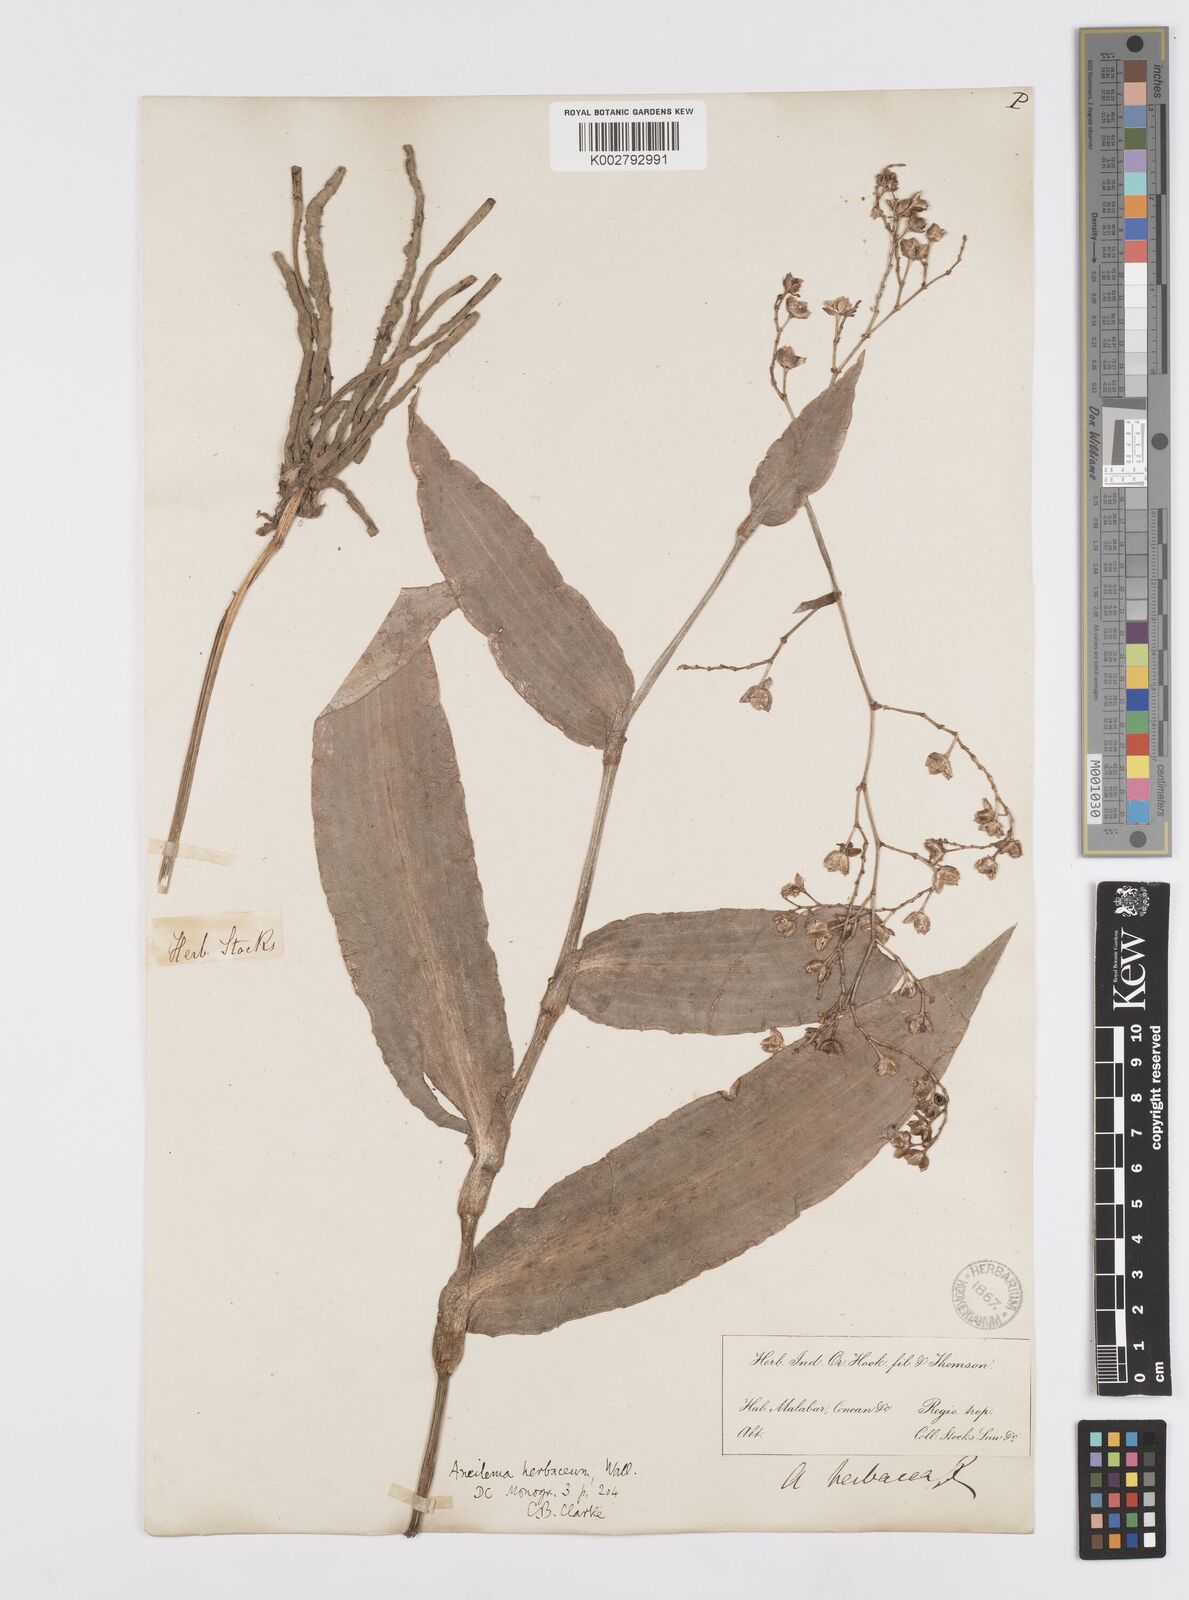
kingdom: Plantae
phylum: Tracheophyta
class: Liliopsida
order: Commelinales
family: Commelinaceae
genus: Murdannia
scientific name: Murdannia
